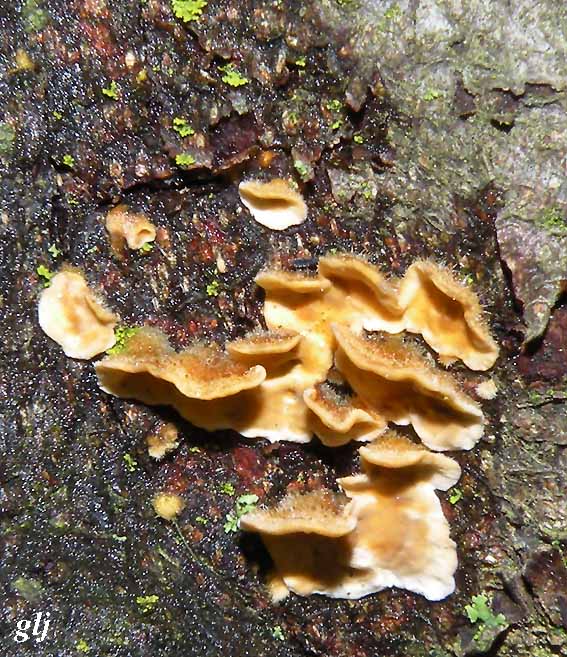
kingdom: Fungi
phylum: Basidiomycota
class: Agaricomycetes
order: Russulales
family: Stereaceae
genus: Stereum
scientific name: Stereum hirsutum
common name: håret lædersvamp
